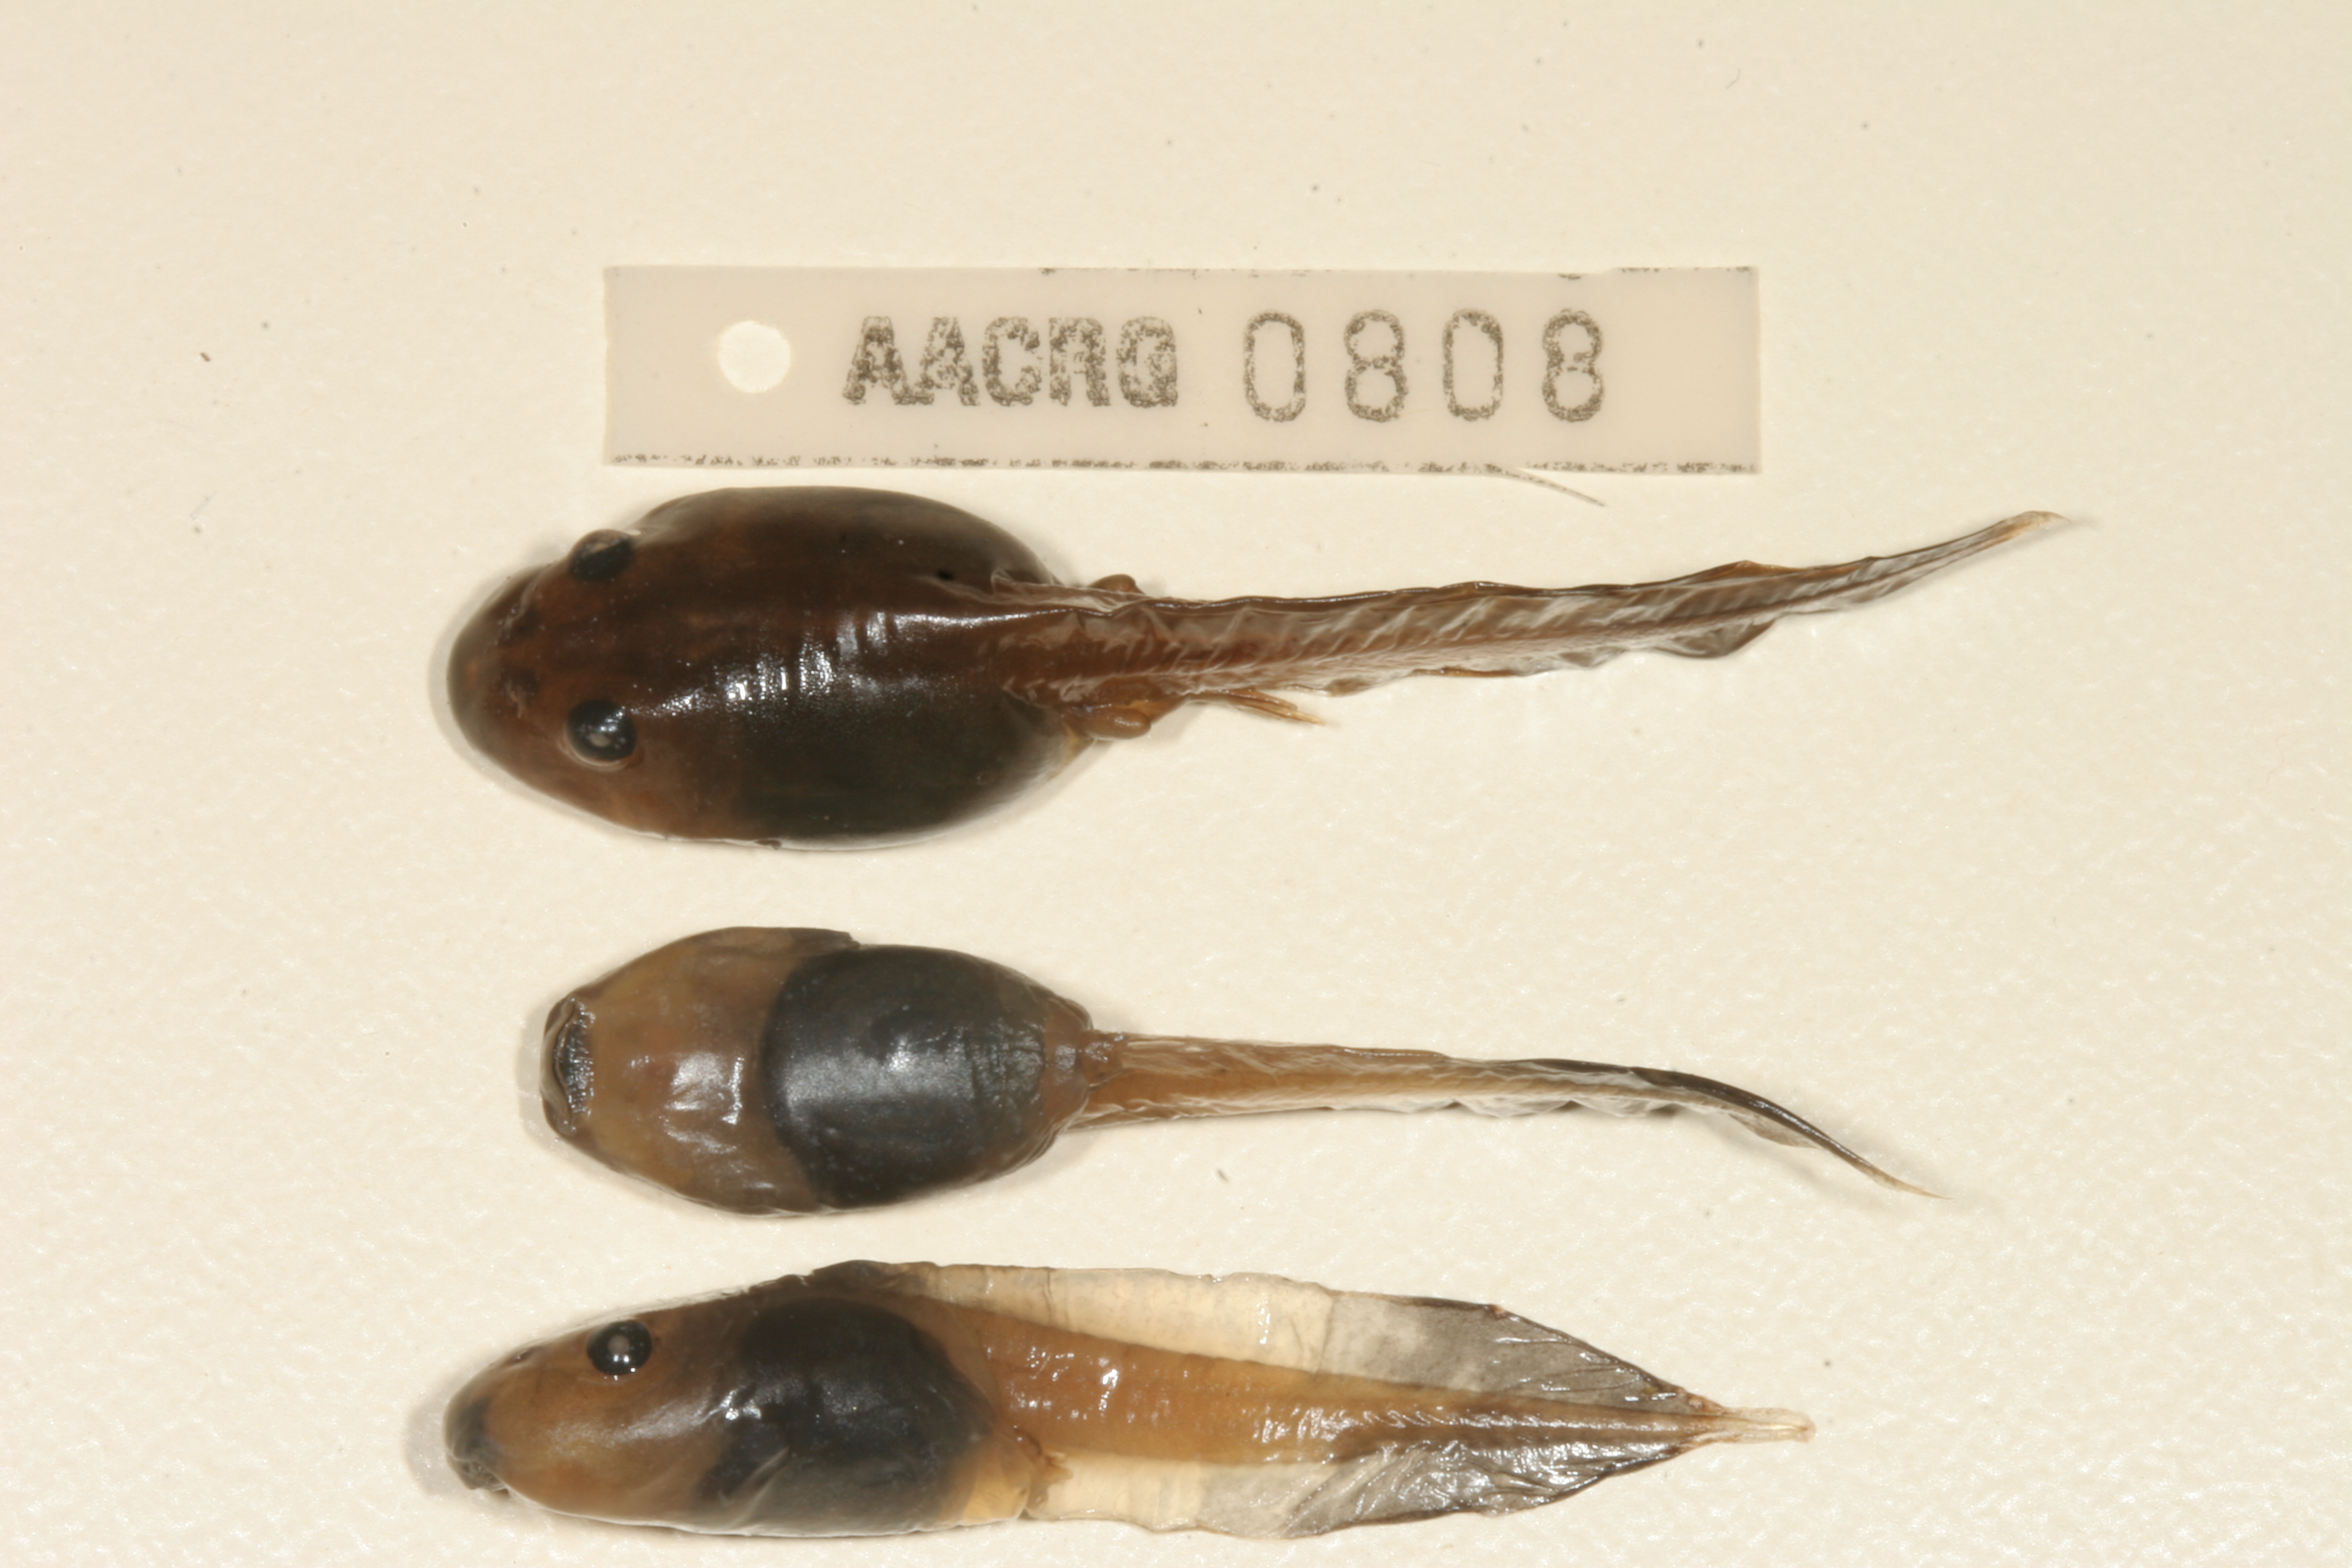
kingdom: Animalia
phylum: Chordata
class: Amphibia
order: Anura
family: Pyxicephalidae
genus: Strongylopus
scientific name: Strongylopus grayii
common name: Gray's stream frog
